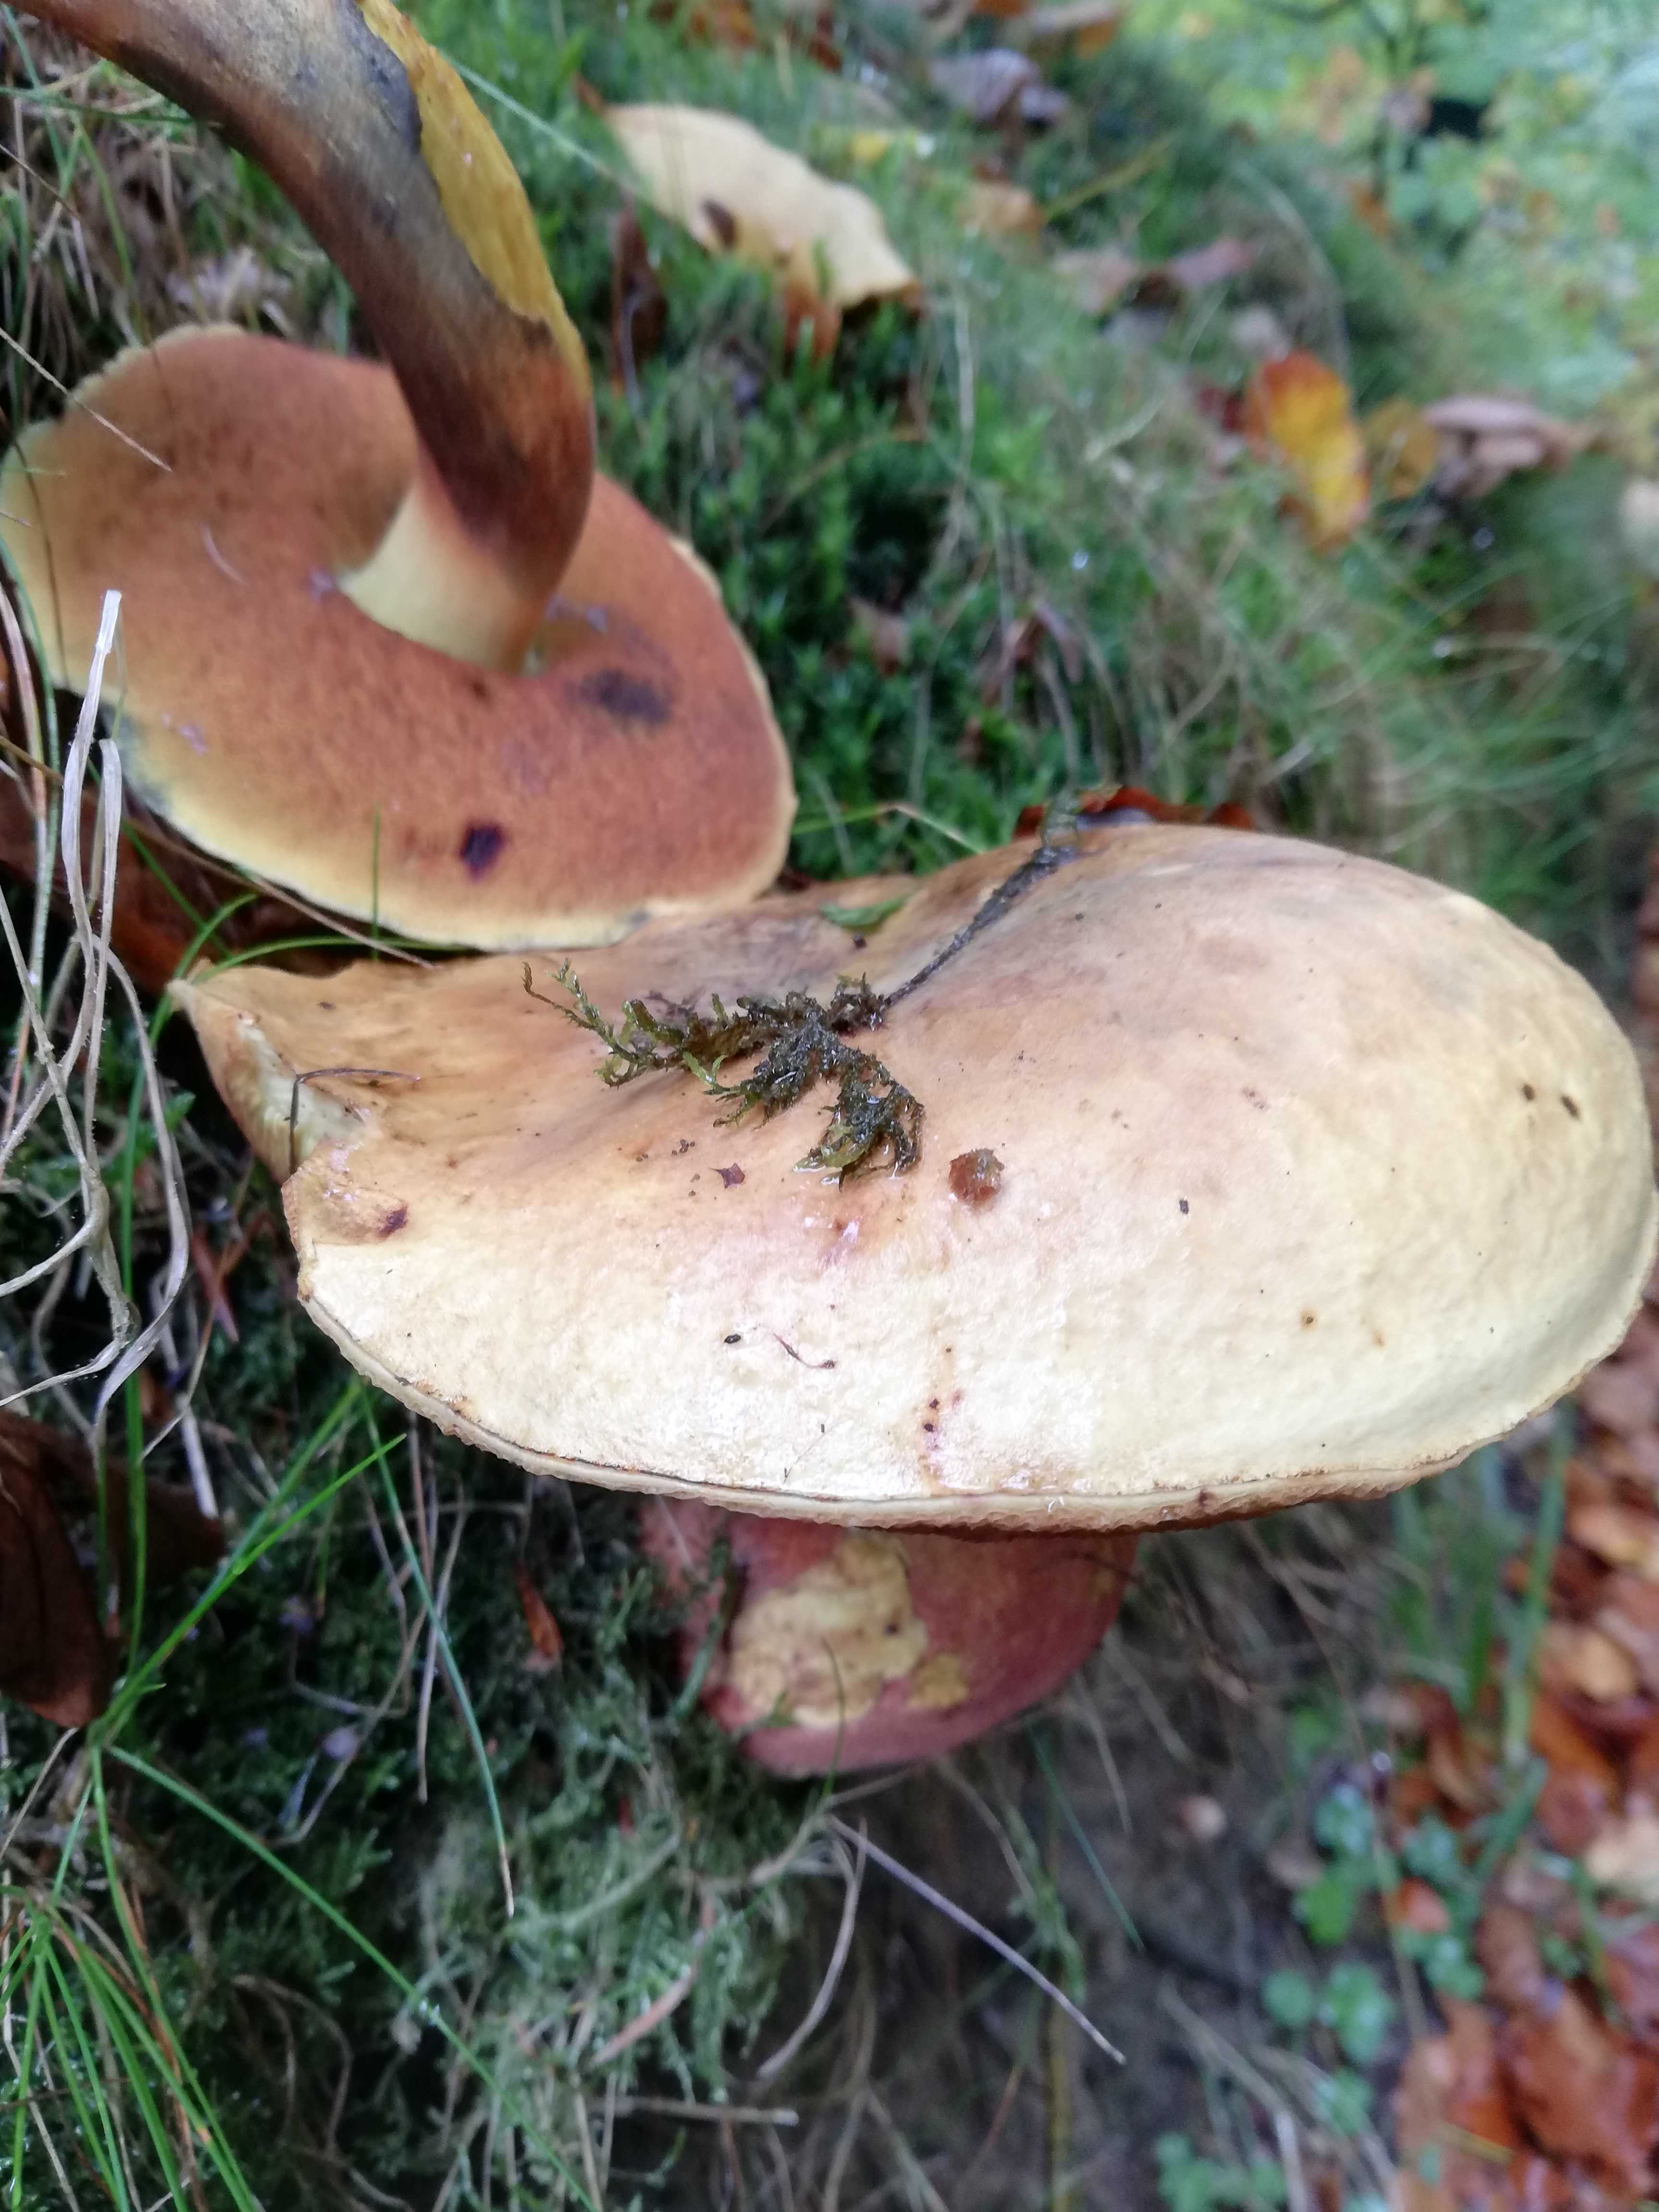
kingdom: Fungi
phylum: Basidiomycota
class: Agaricomycetes
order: Boletales
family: Boletaceae
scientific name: Boletaceae
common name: rørhatfamilien
